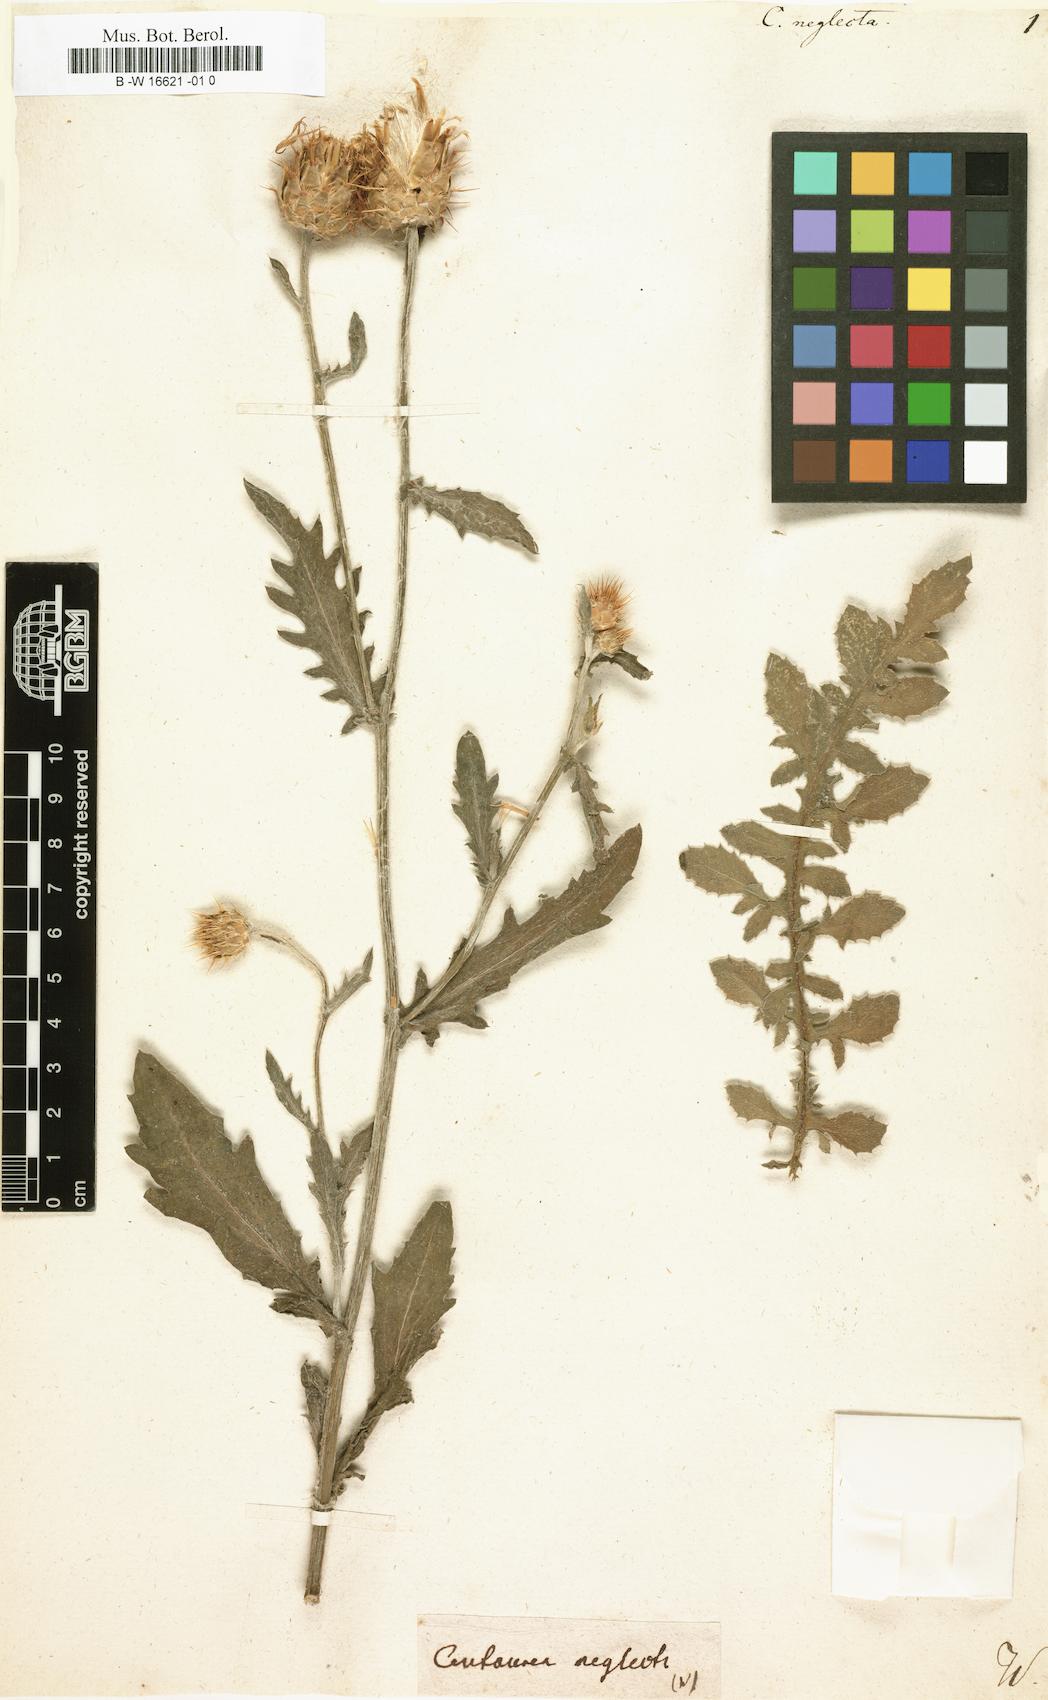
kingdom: Plantae
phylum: Tracheophyta
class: Magnoliopsida
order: Asterales
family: Asteraceae
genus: Centaurea
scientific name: Centaurea
